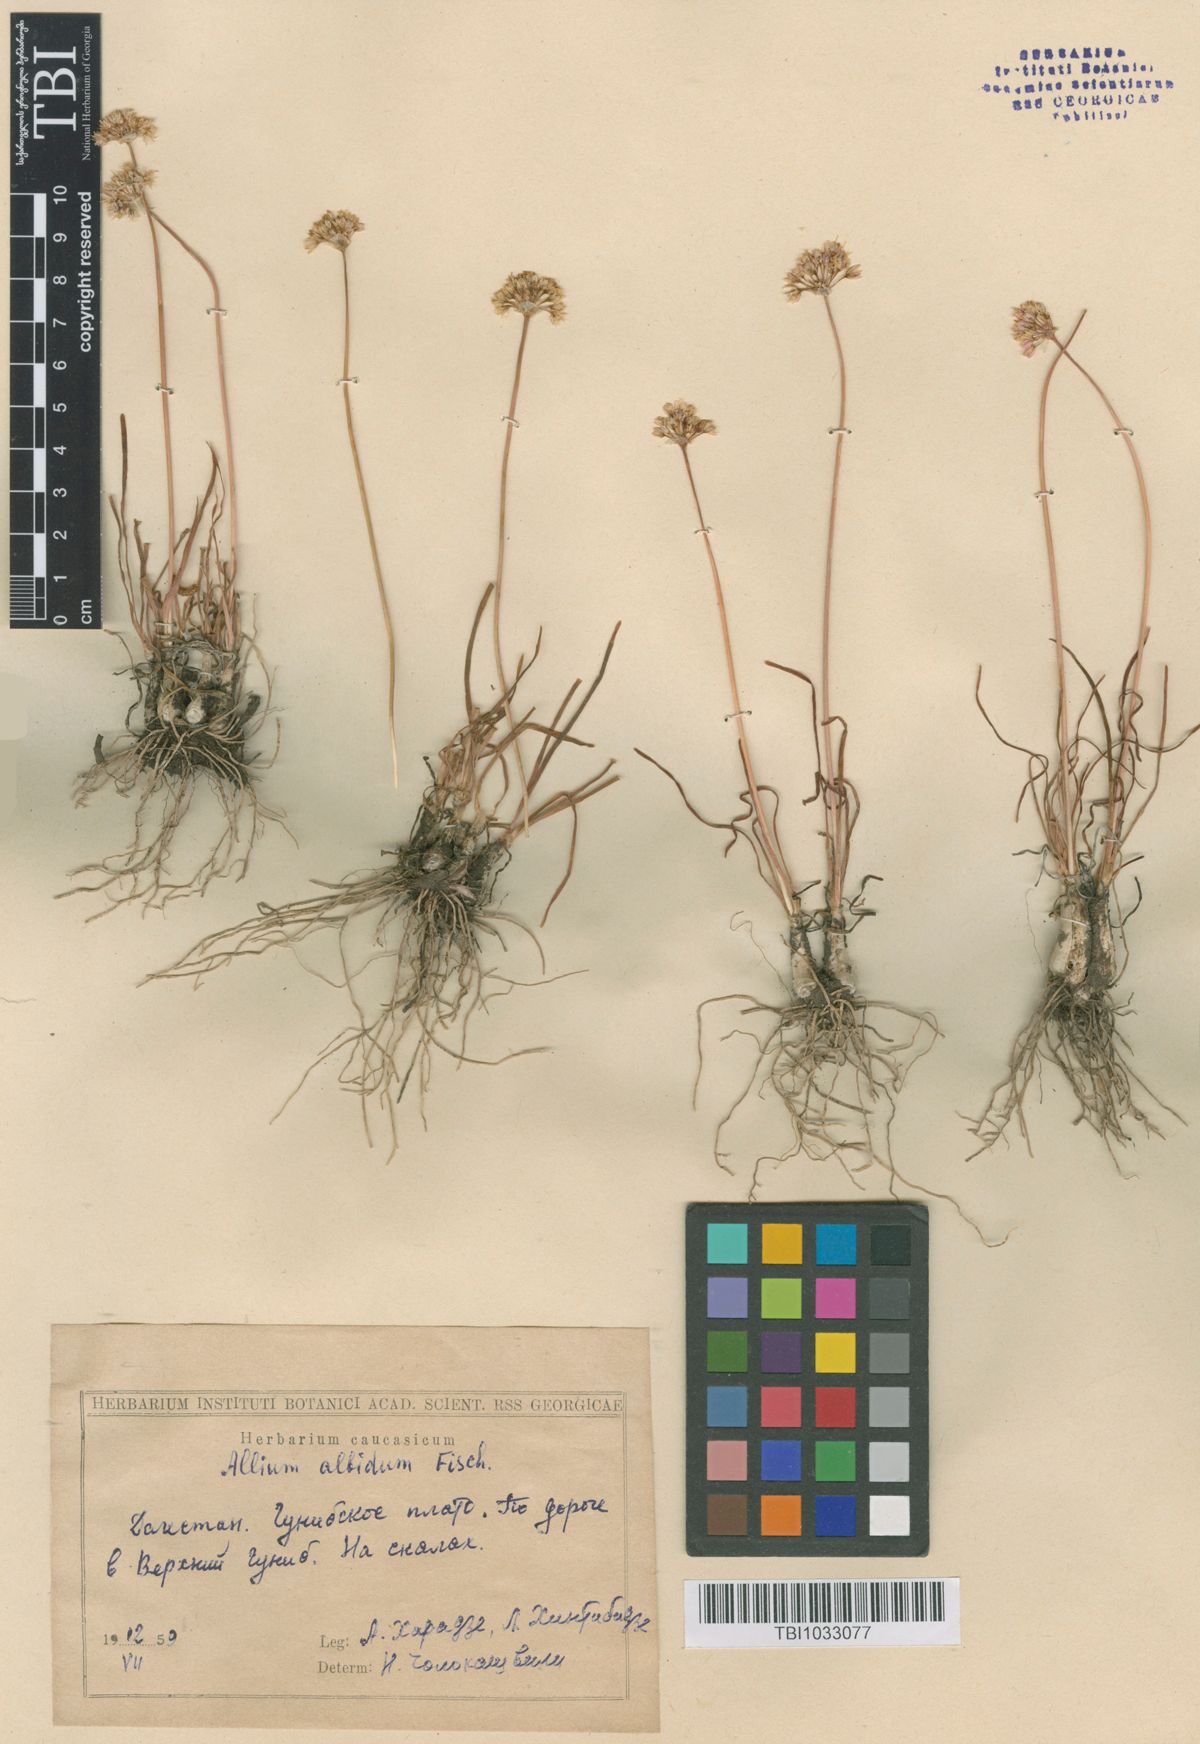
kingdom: Plantae
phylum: Tracheophyta
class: Liliopsida
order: Asparagales
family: Amaryllidaceae
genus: Allium
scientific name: Allium denudatum
